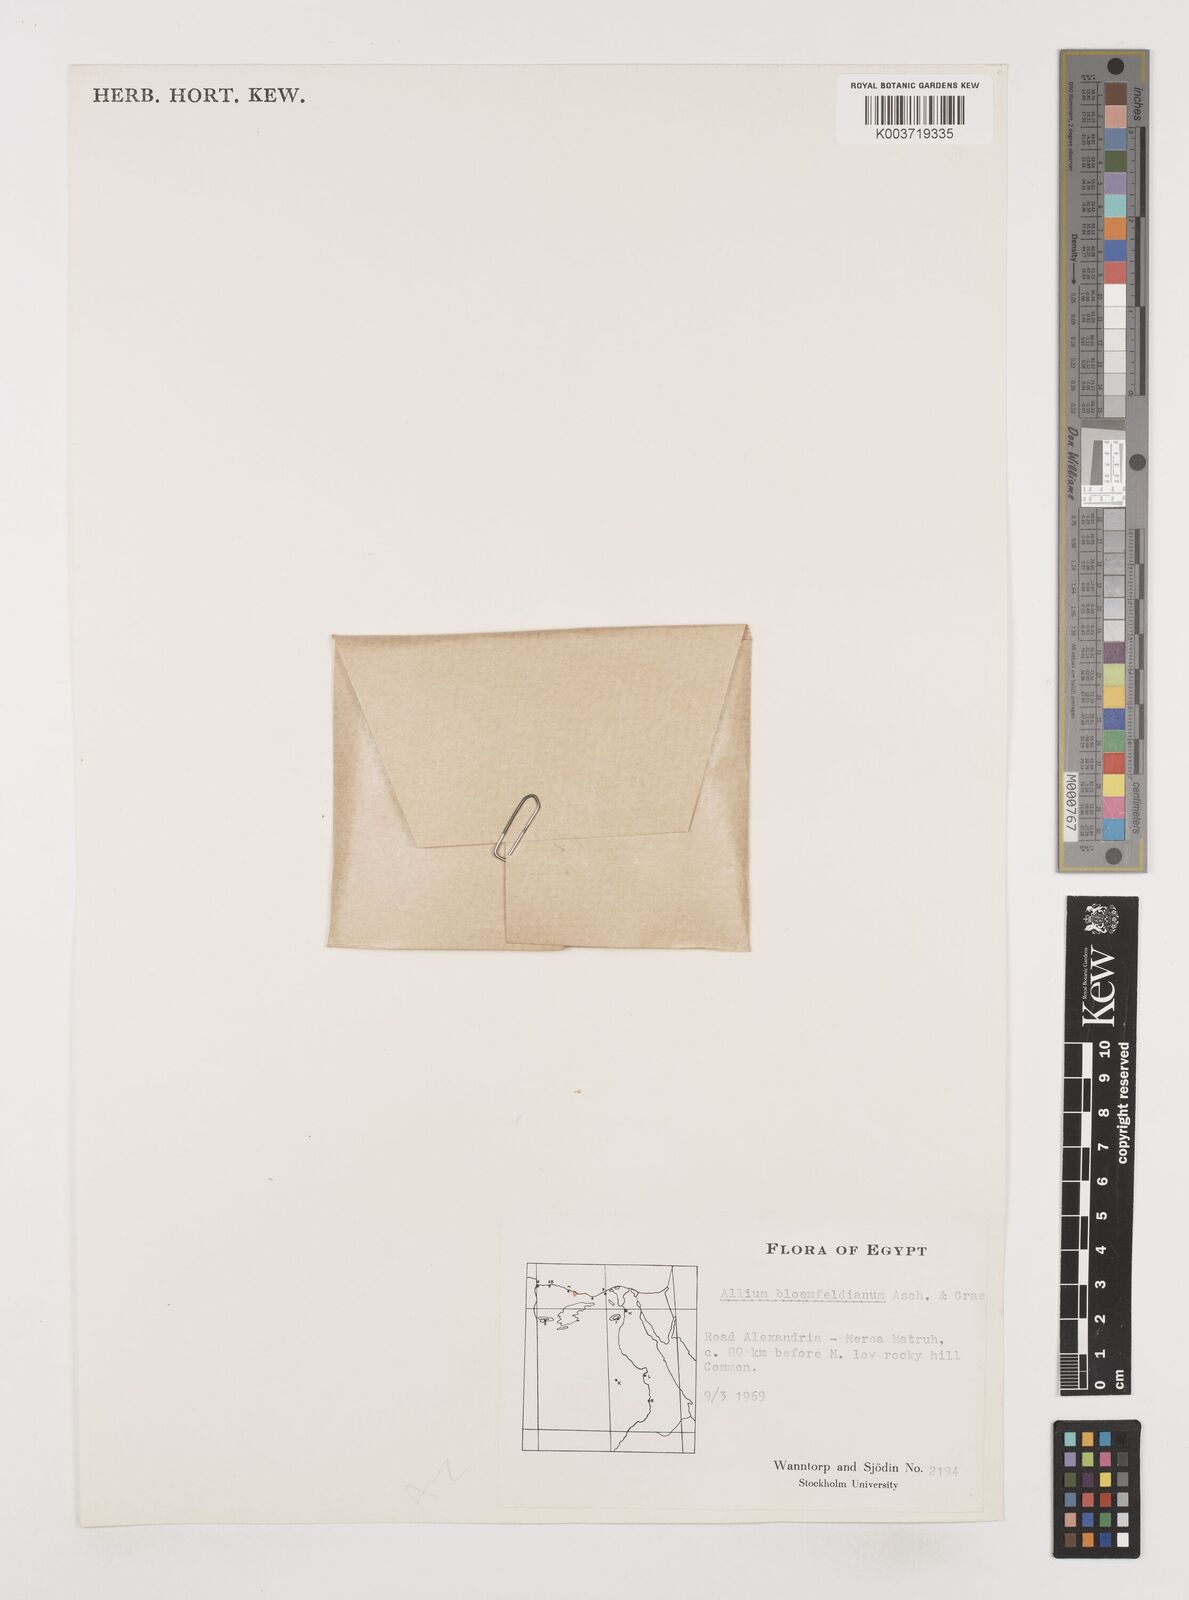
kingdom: Plantae
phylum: Tracheophyta
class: Liliopsida
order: Asparagales
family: Amaryllidaceae
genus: Allium
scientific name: Allium blomfieldianum
